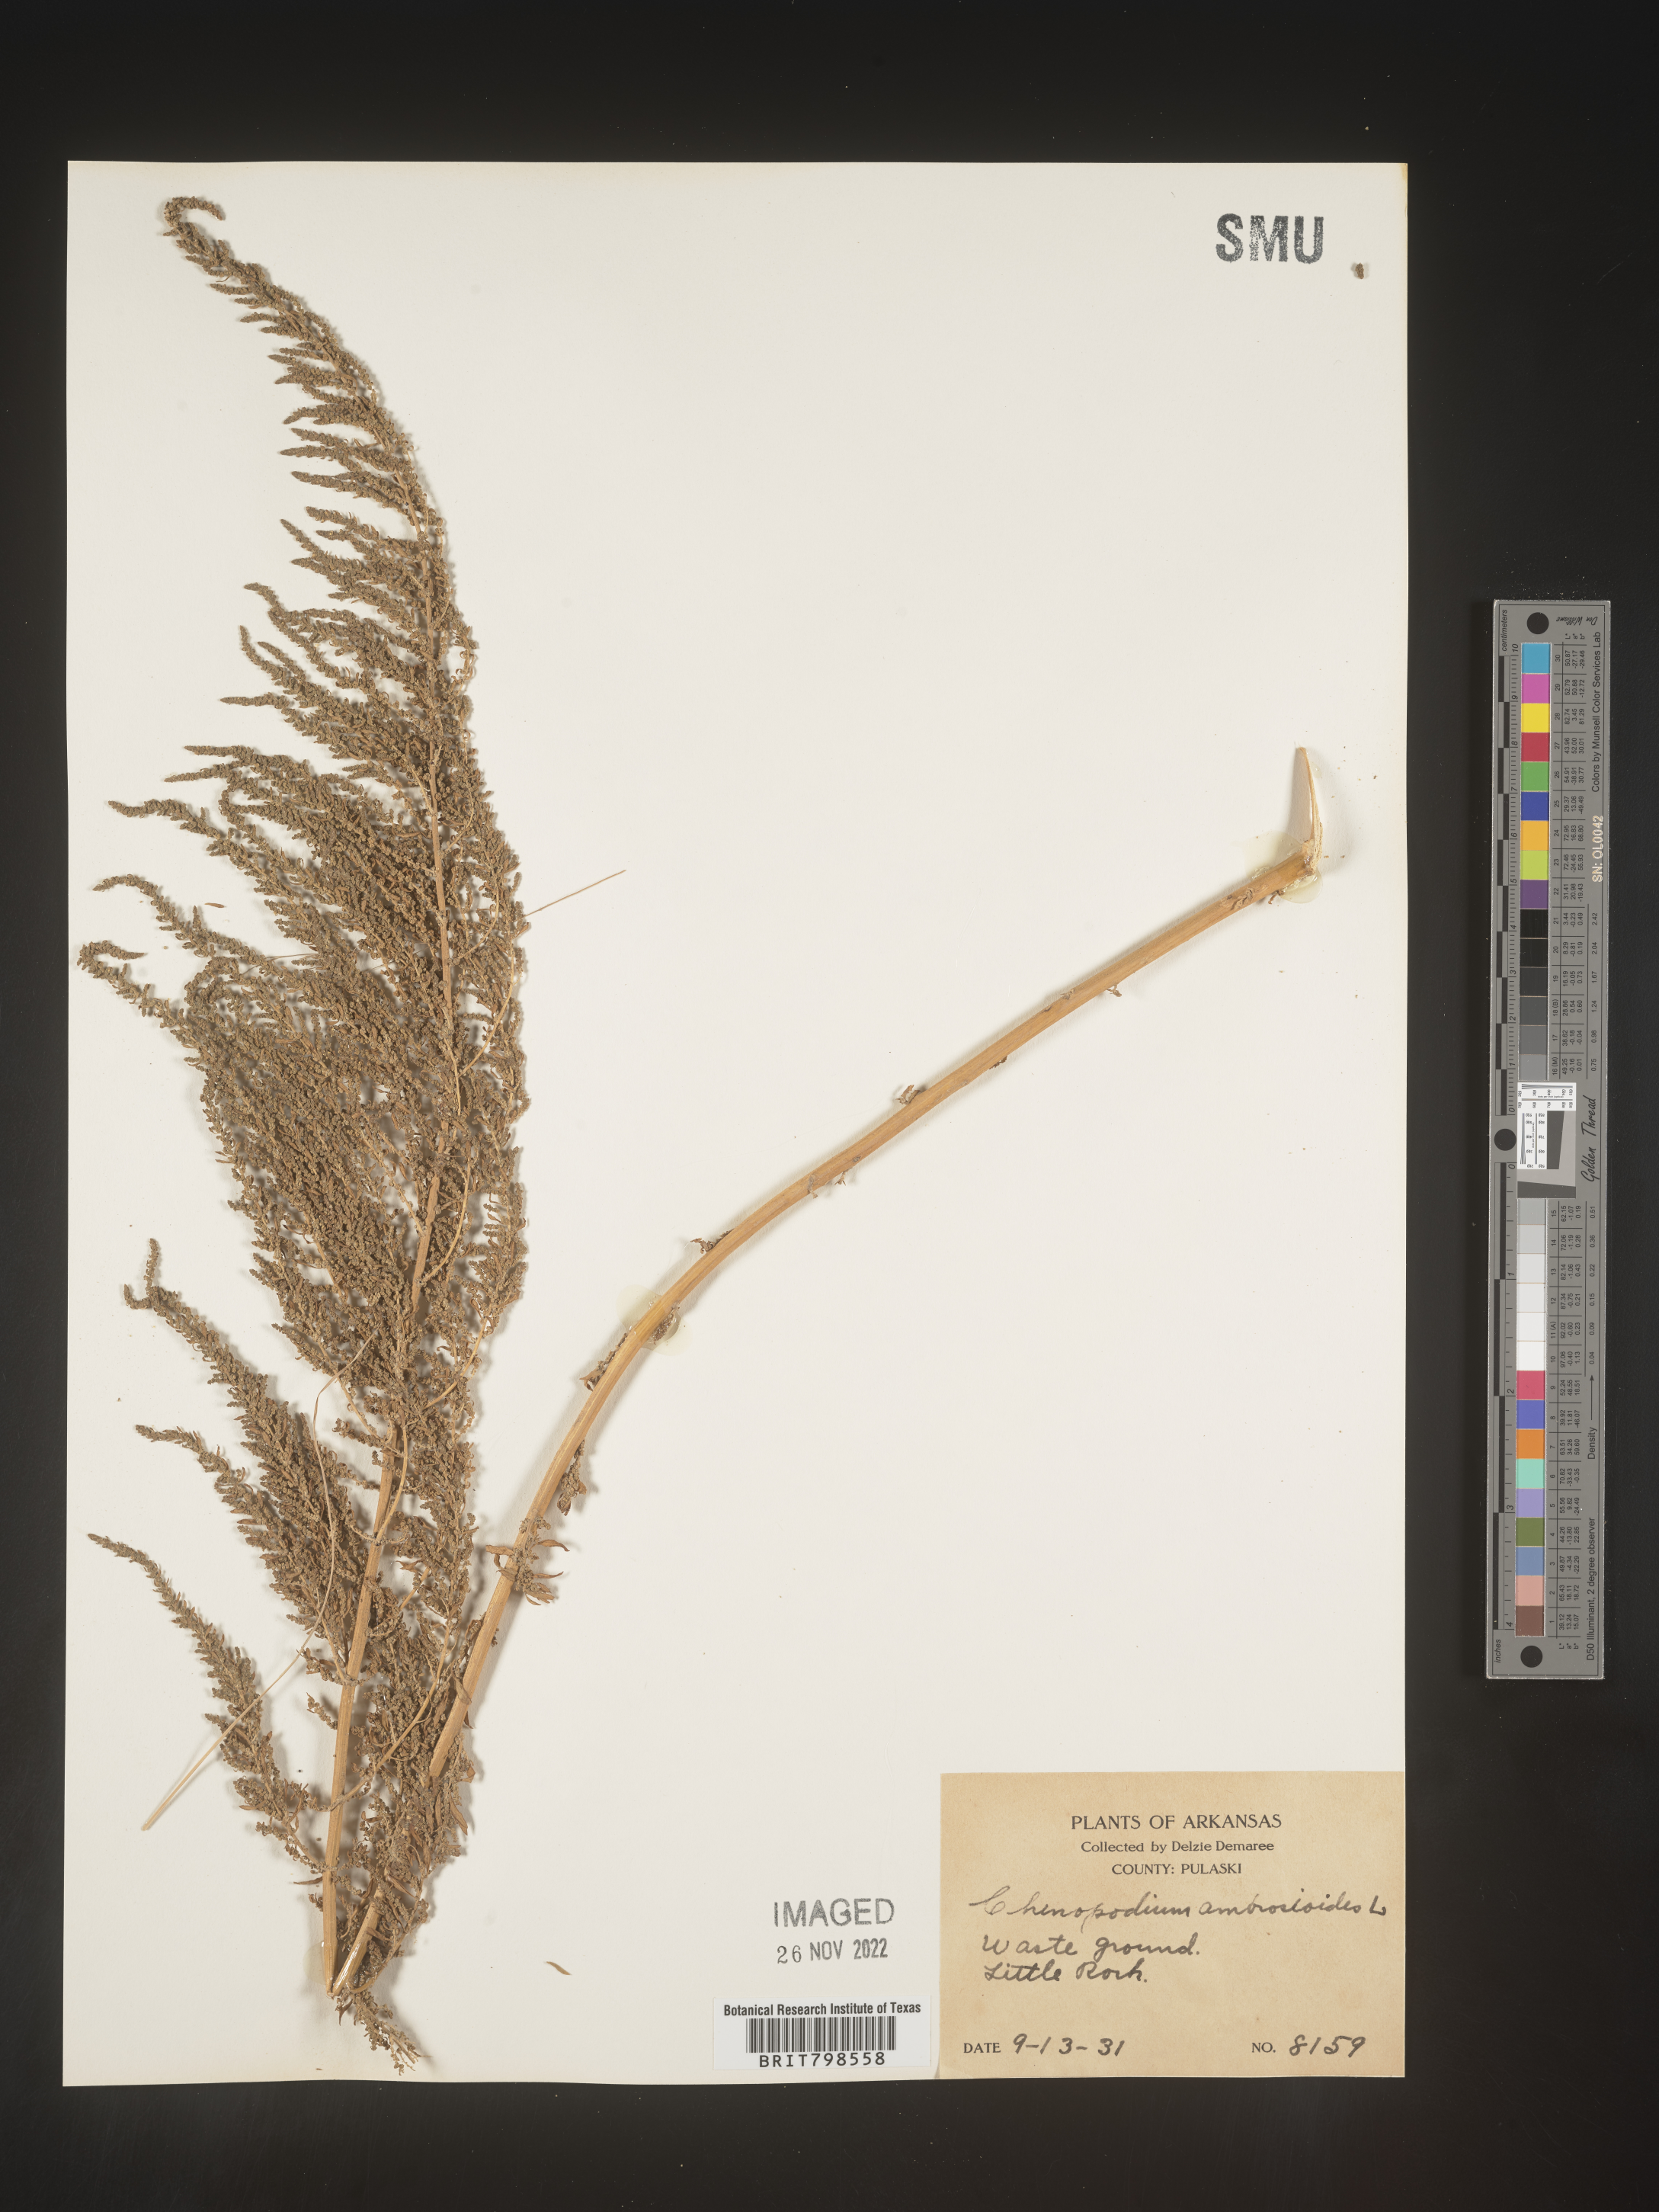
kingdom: Plantae
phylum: Tracheophyta
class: Magnoliopsida
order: Caryophyllales
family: Amaranthaceae
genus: Dysphania
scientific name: Dysphania ambrosioides
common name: Wormseed
